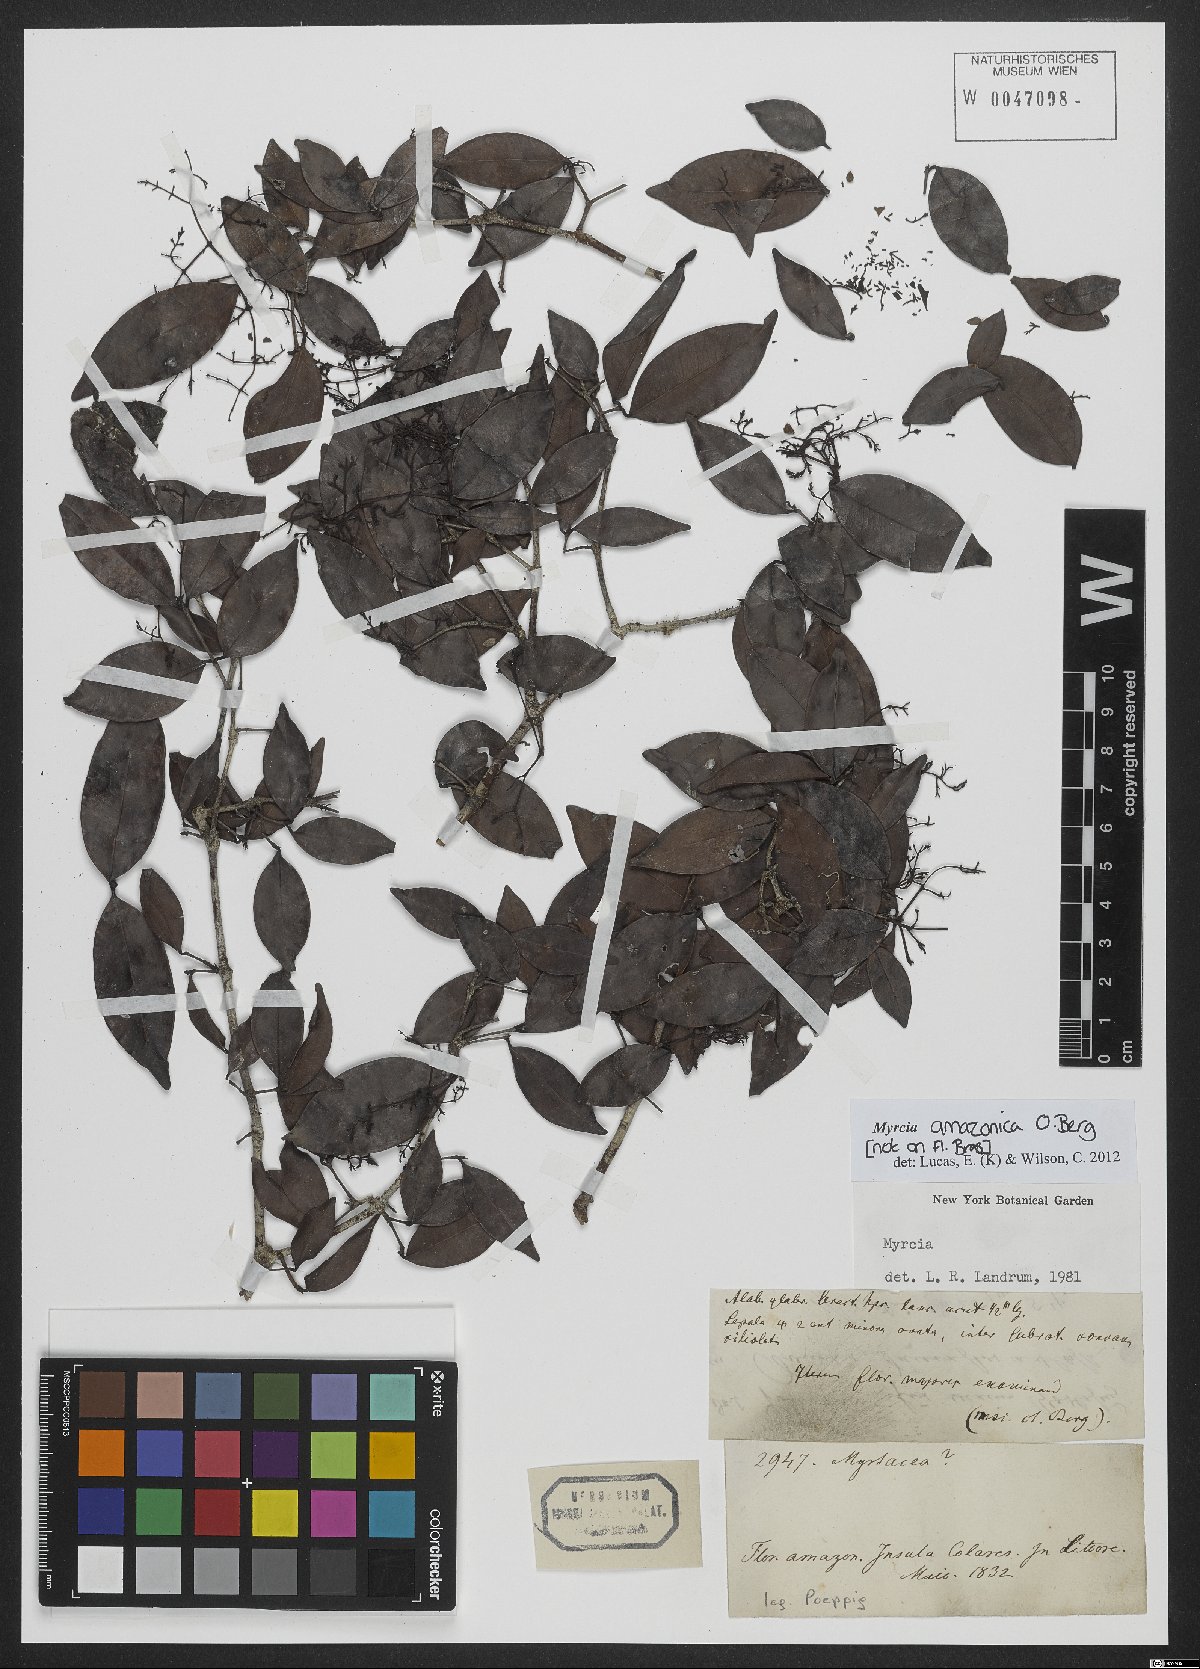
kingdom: Plantae
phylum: Tracheophyta
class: Magnoliopsida
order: Myrtales
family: Myrtaceae
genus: Myrcia
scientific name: Myrcia amazonica
